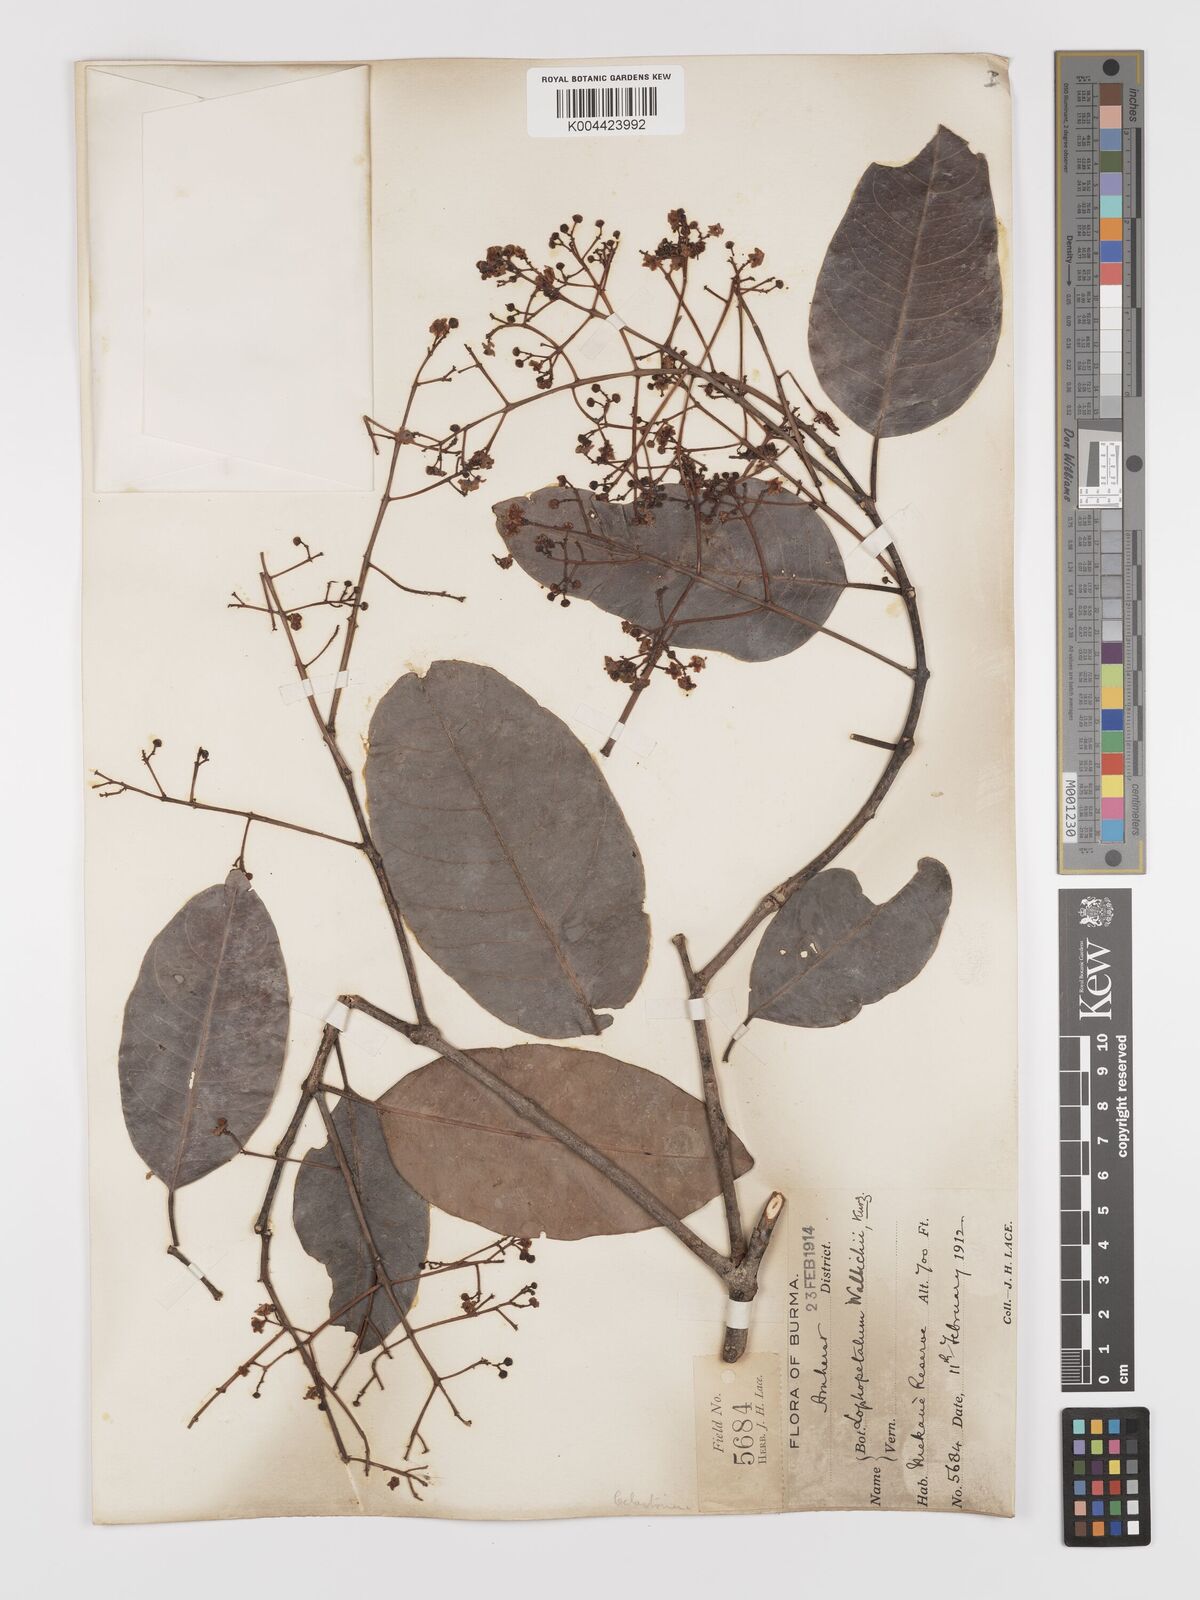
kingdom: Plantae
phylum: Tracheophyta
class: Magnoliopsida
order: Celastrales
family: Celastraceae
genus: Lophopetalum
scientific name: Lophopetalum wallichii
